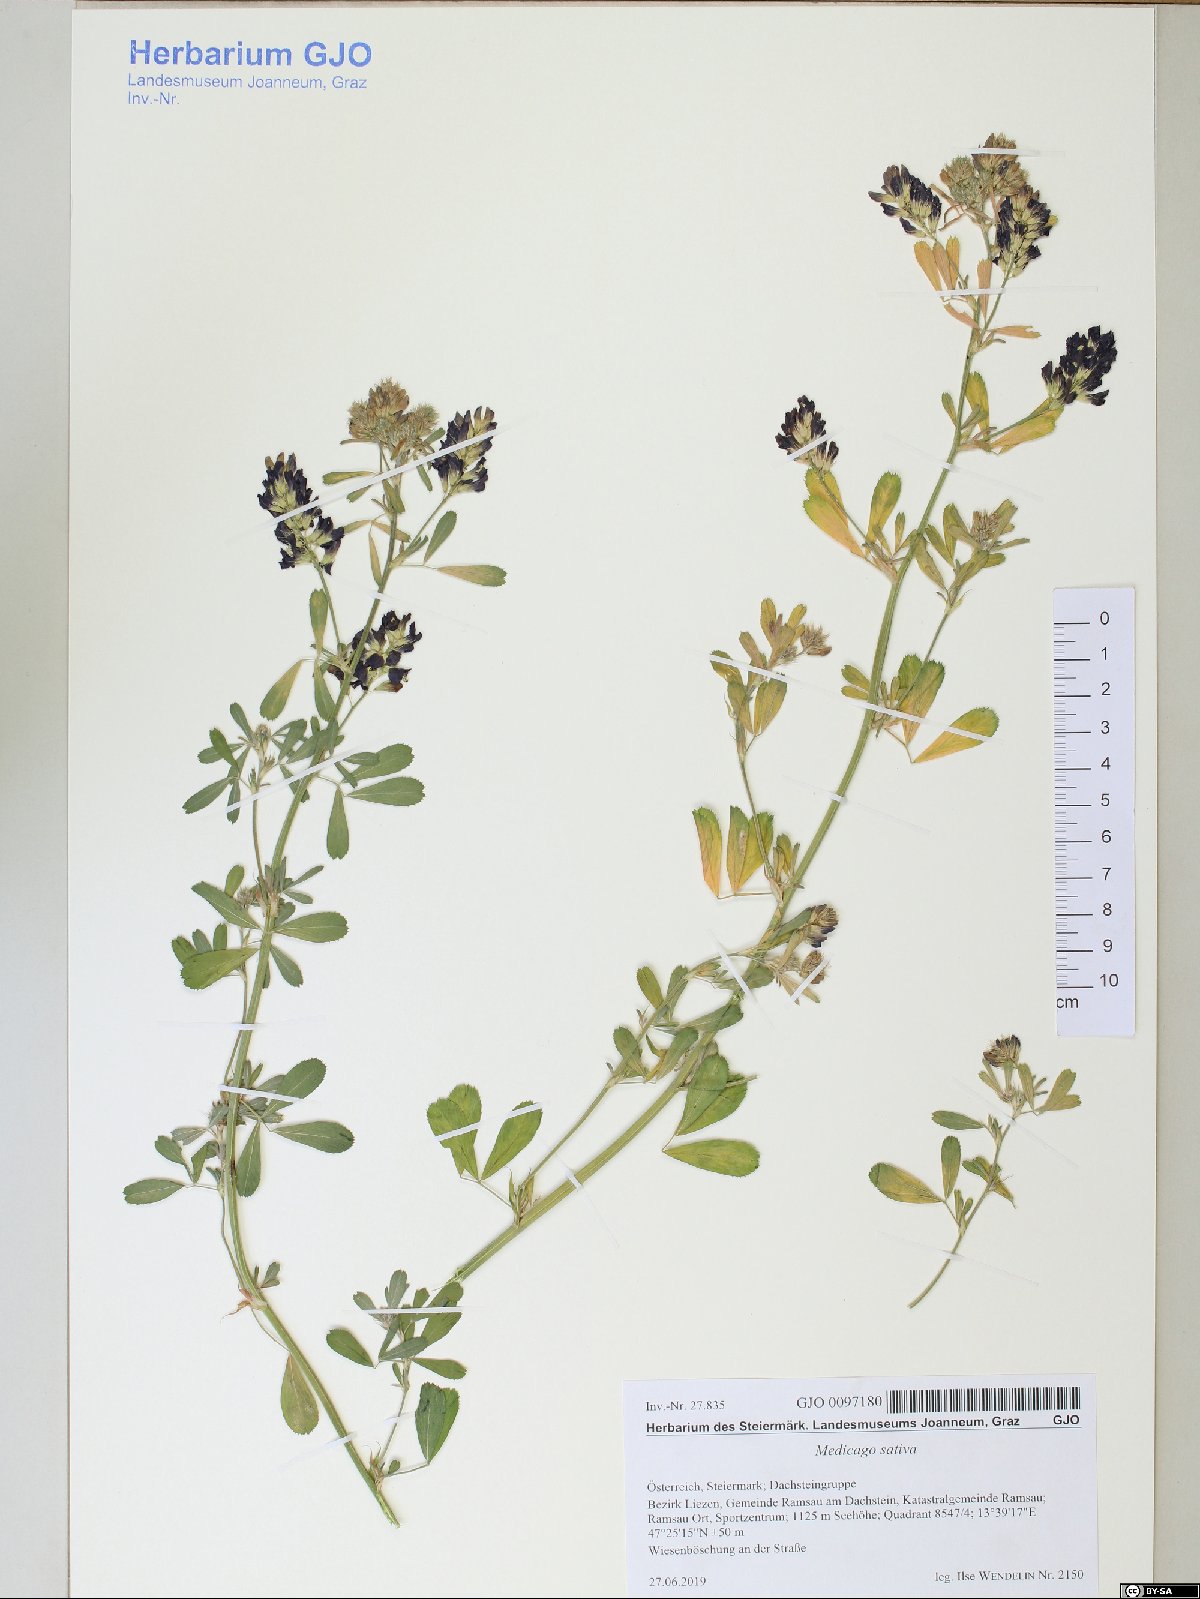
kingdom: Plantae
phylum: Tracheophyta
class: Magnoliopsida
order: Fabales
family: Fabaceae
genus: Medicago
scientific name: Medicago sativa
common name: Alfalfa
